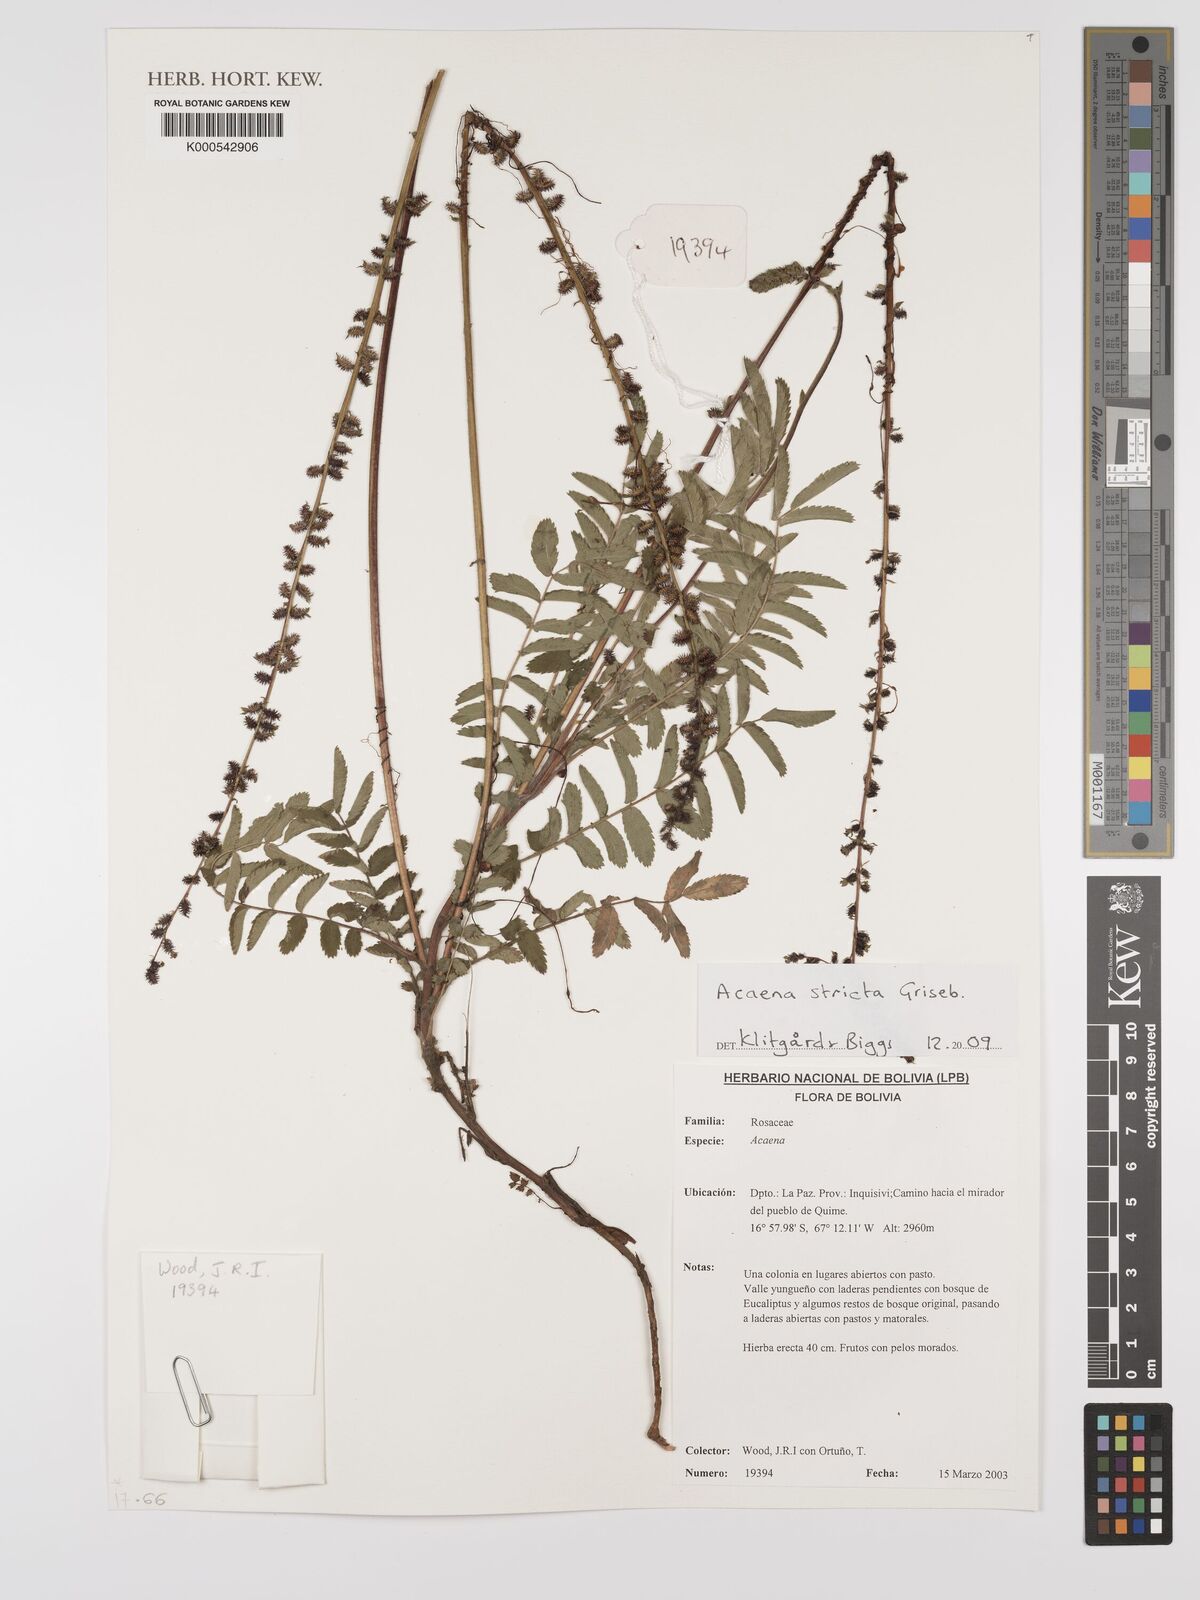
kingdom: Plantae
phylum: Tracheophyta
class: Magnoliopsida
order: Rosales
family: Rosaceae
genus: Acaena
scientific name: Acaena stricta
